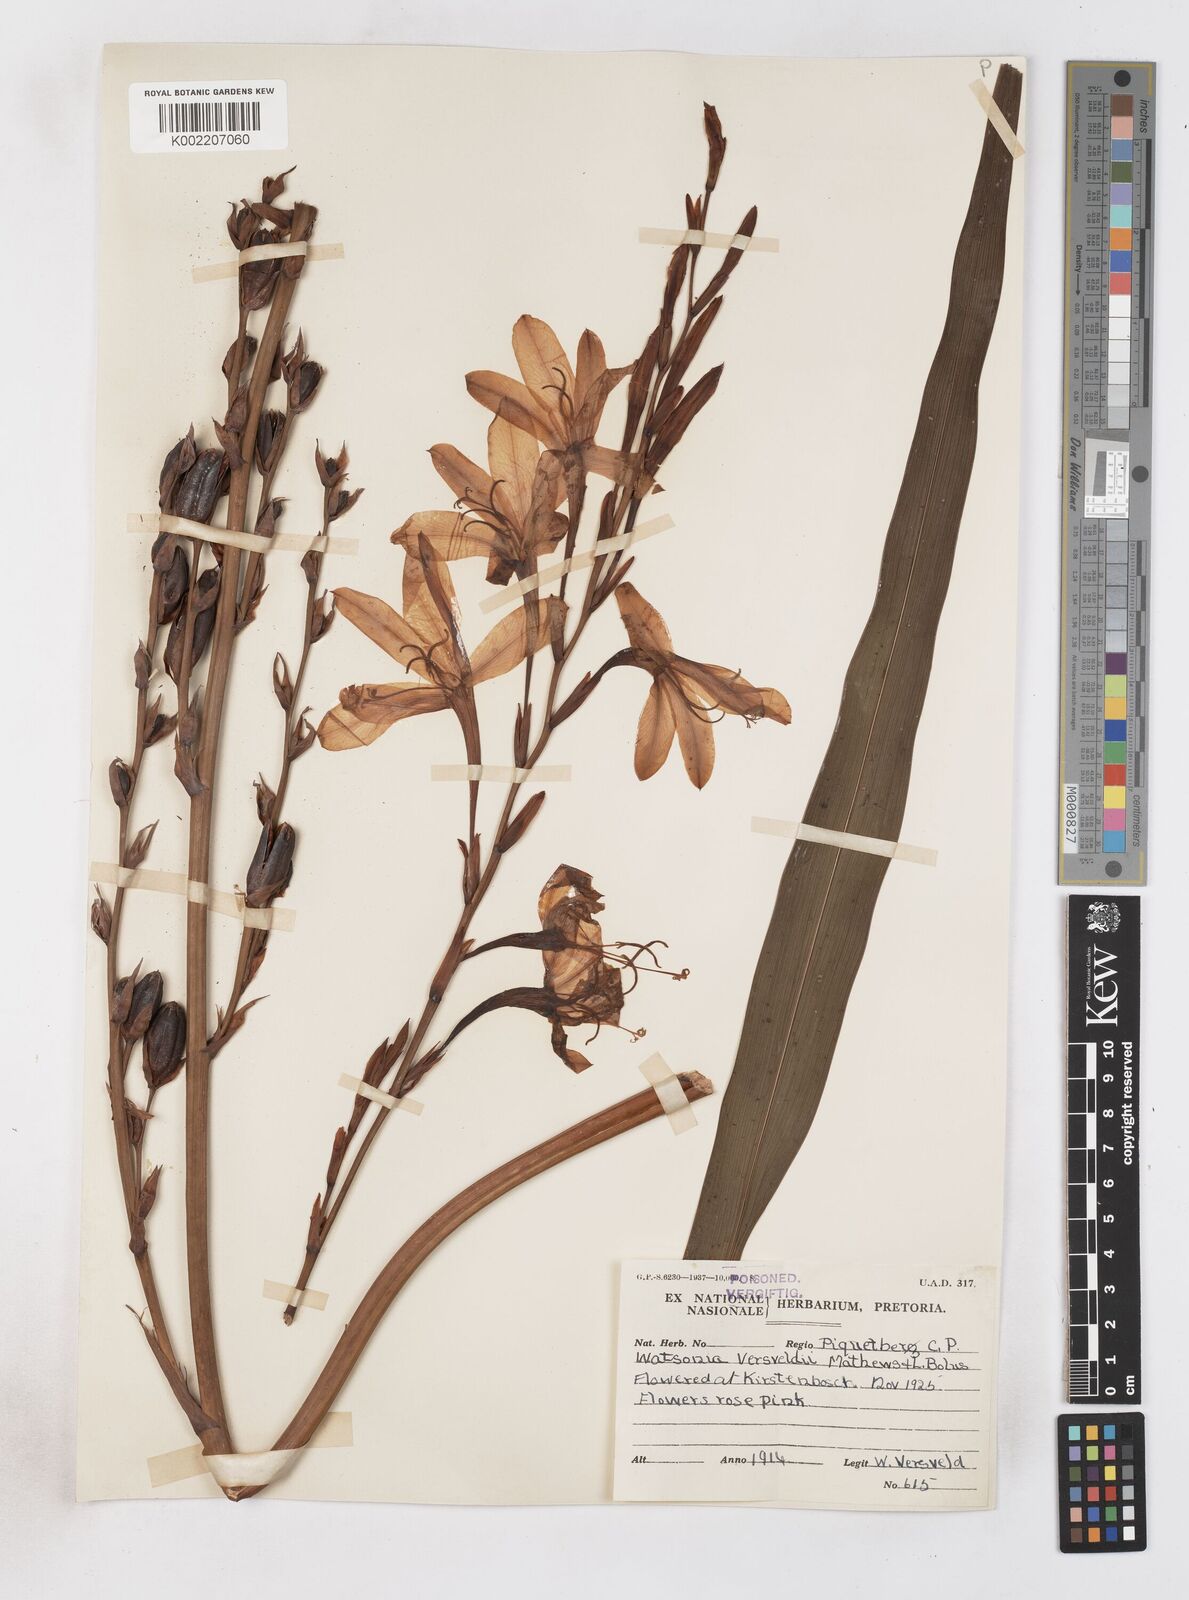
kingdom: Plantae
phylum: Tracheophyta
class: Liliopsida
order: Asparagales
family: Iridaceae
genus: Watsonia
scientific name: Watsonia versfeldii
